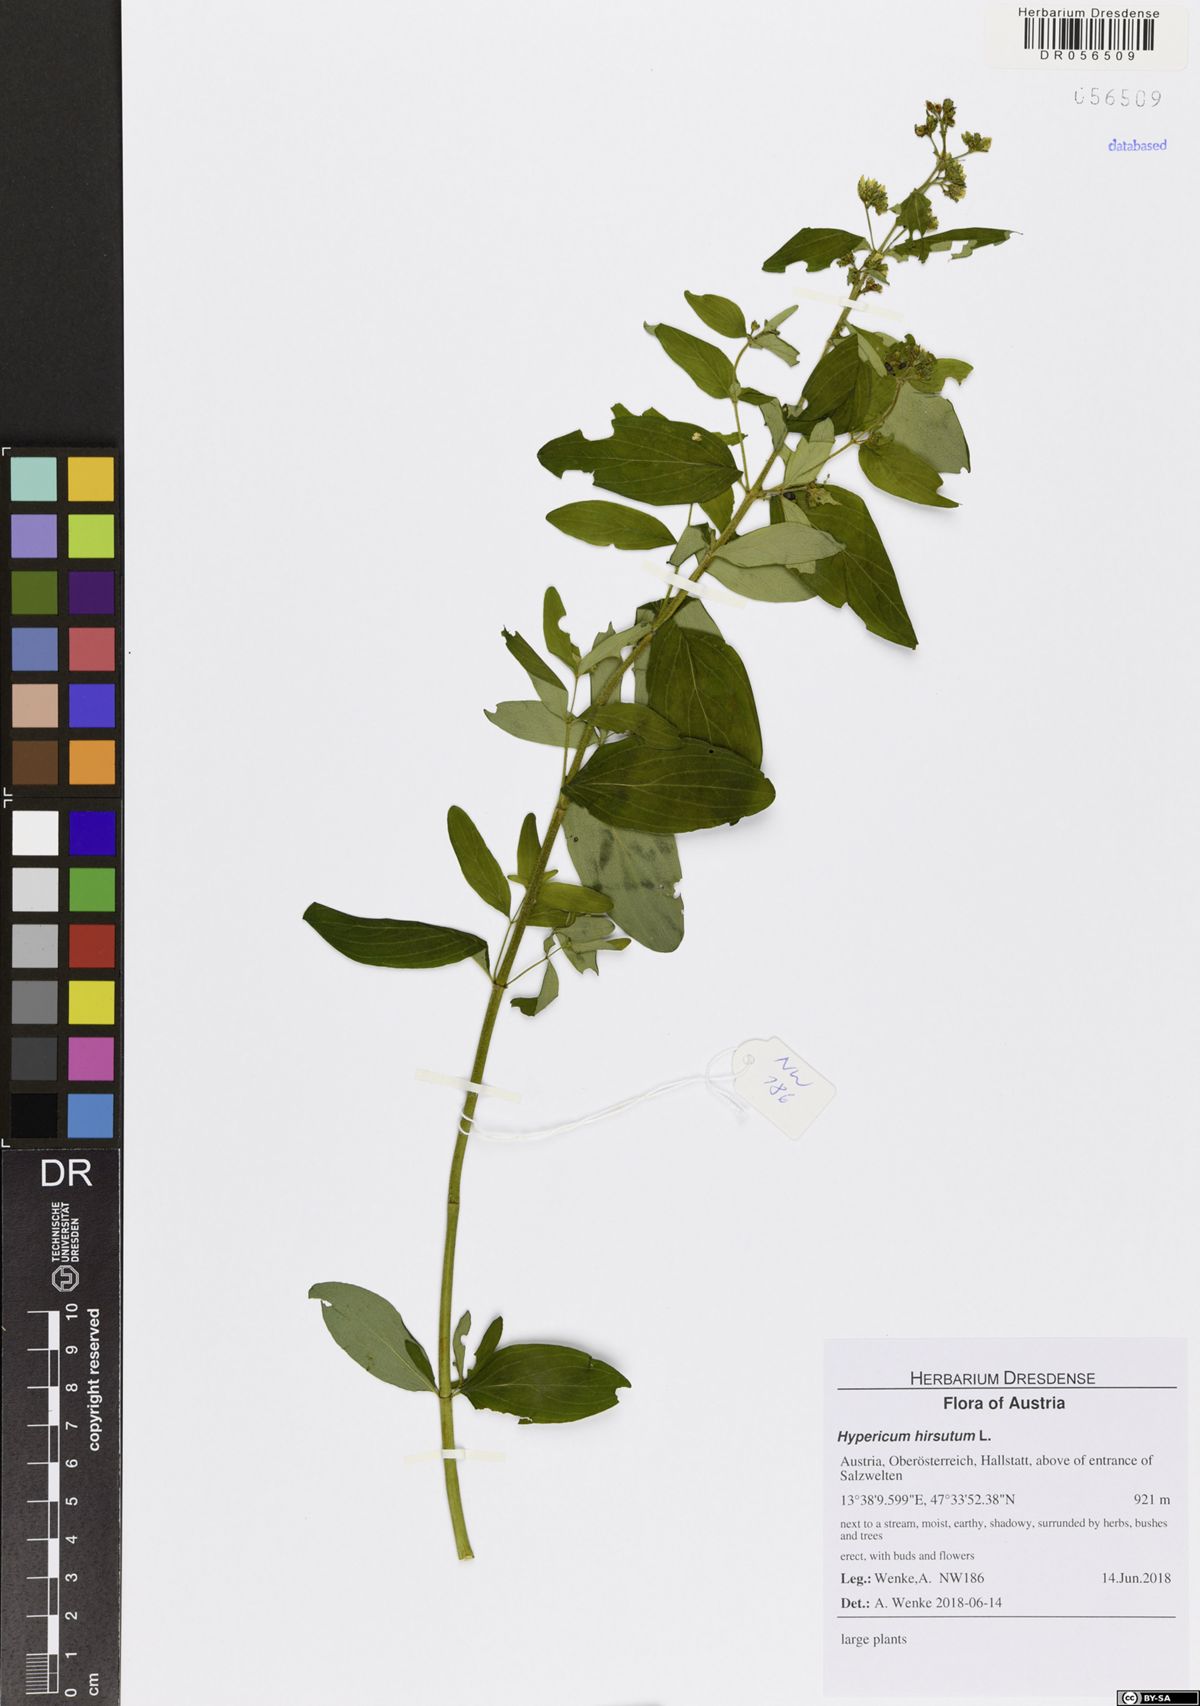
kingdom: Plantae
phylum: Tracheophyta
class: Magnoliopsida
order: Malpighiales
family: Hypericaceae
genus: Hypericum
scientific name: Hypericum hirsutum
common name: Hairy st. john's-wort
